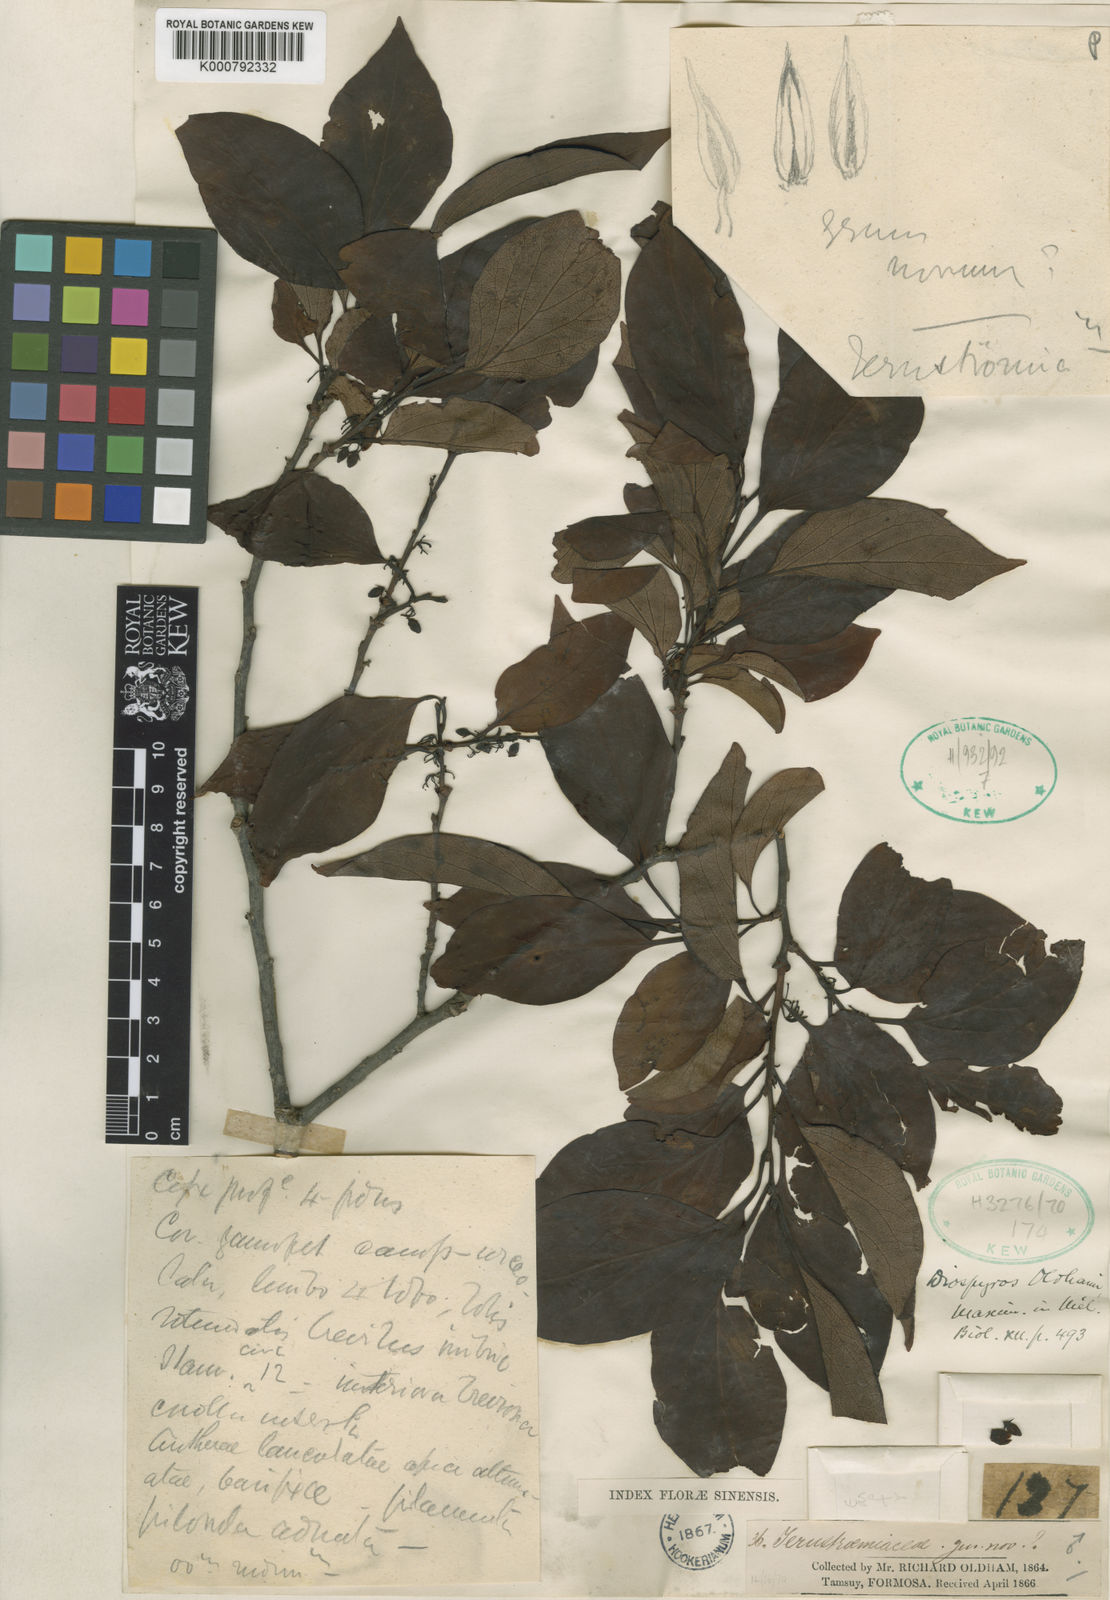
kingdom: Plantae
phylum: Tracheophyta
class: Magnoliopsida
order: Ericales
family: Ebenaceae
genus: Diospyros
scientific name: Diospyros oldhamii
